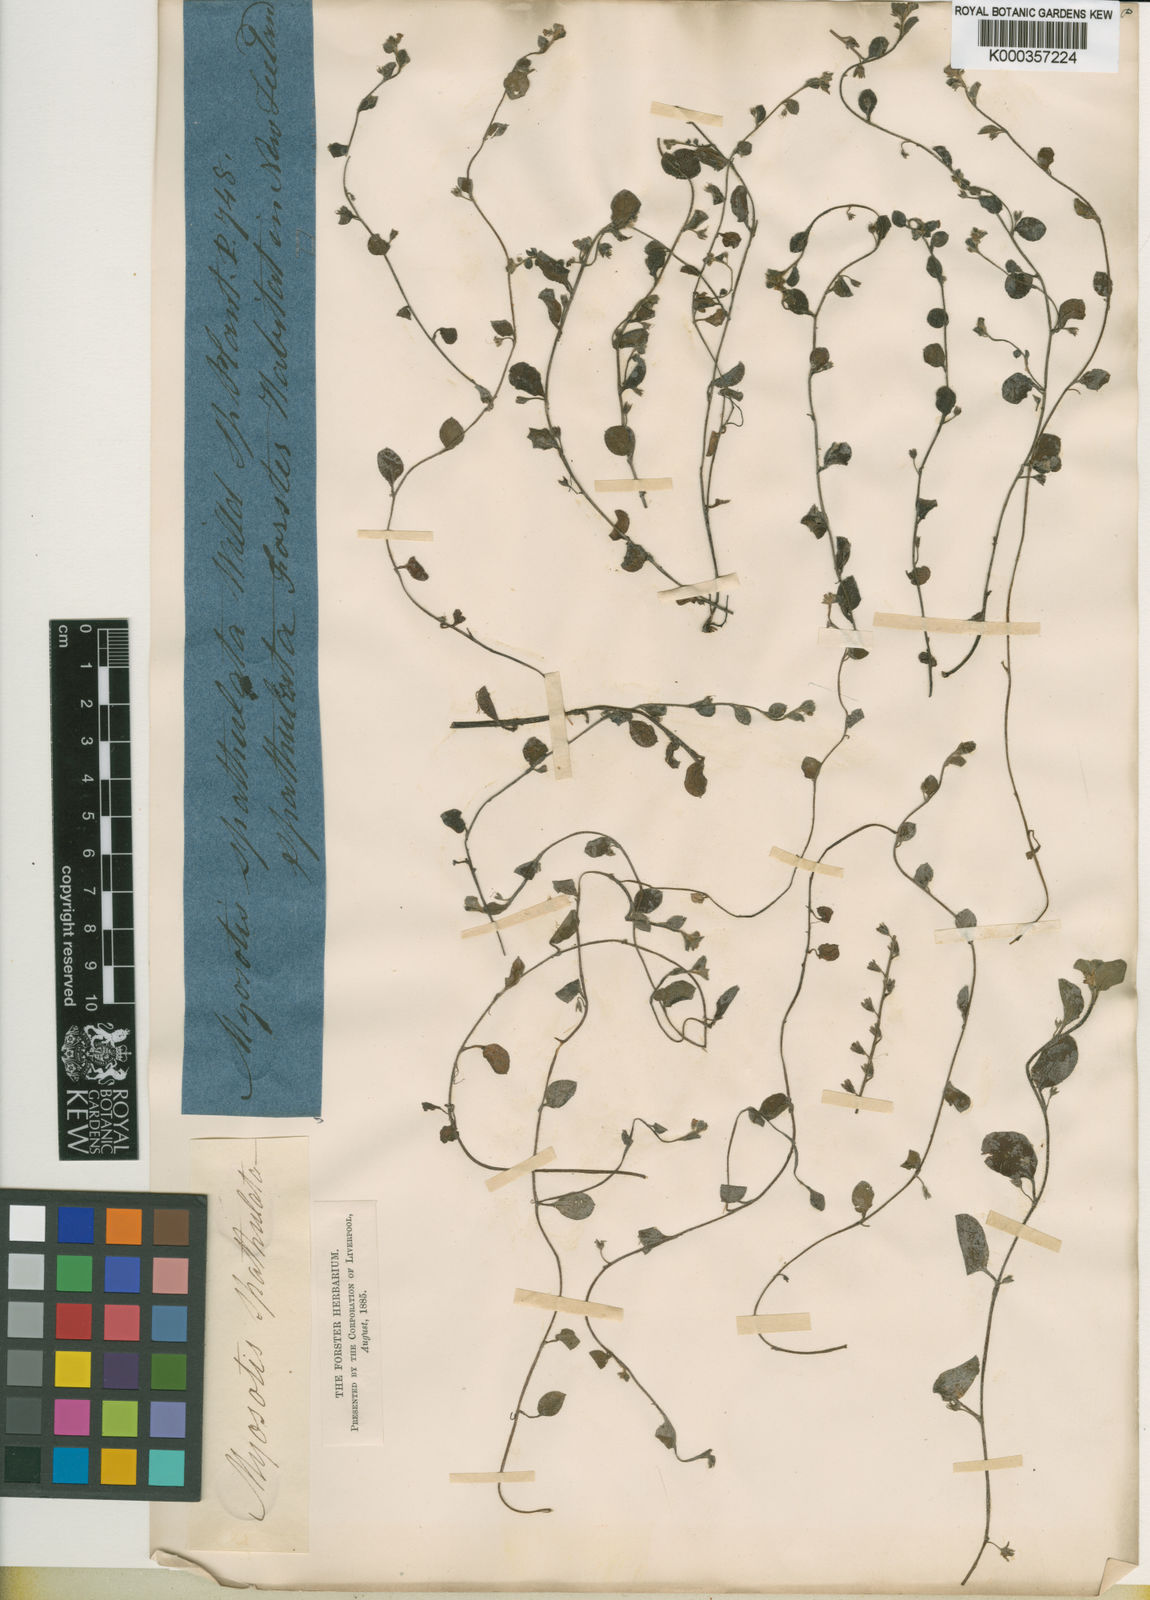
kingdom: Plantae
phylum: Tracheophyta
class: Magnoliopsida
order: Boraginales
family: Boraginaceae
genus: Myosotis
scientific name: Myosotis
